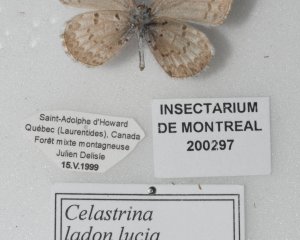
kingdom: Animalia
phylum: Arthropoda
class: Insecta
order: Lepidoptera
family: Lycaenidae
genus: Celastrina
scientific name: Celastrina lucia
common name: Northern Spring Azure
